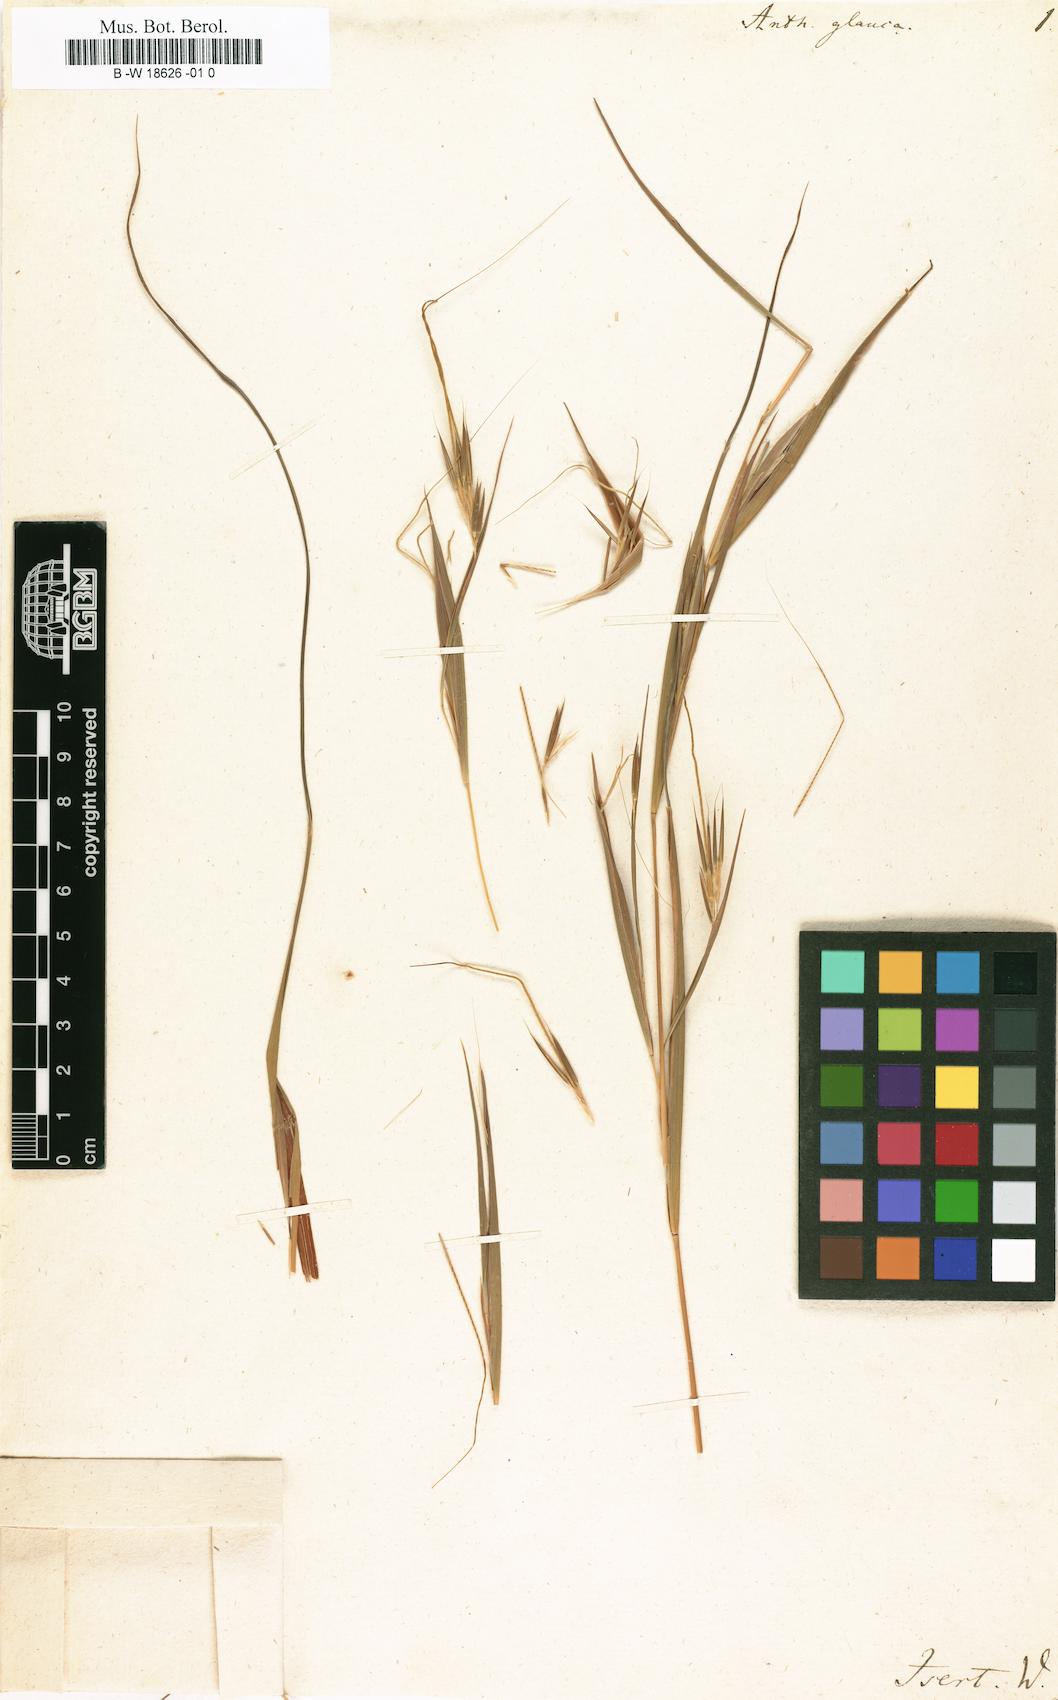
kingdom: Plantae
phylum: Tracheophyta
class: Liliopsida
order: Poales
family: Poaceae
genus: Themeda
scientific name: Themeda triandra
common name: Kangaroo grass
